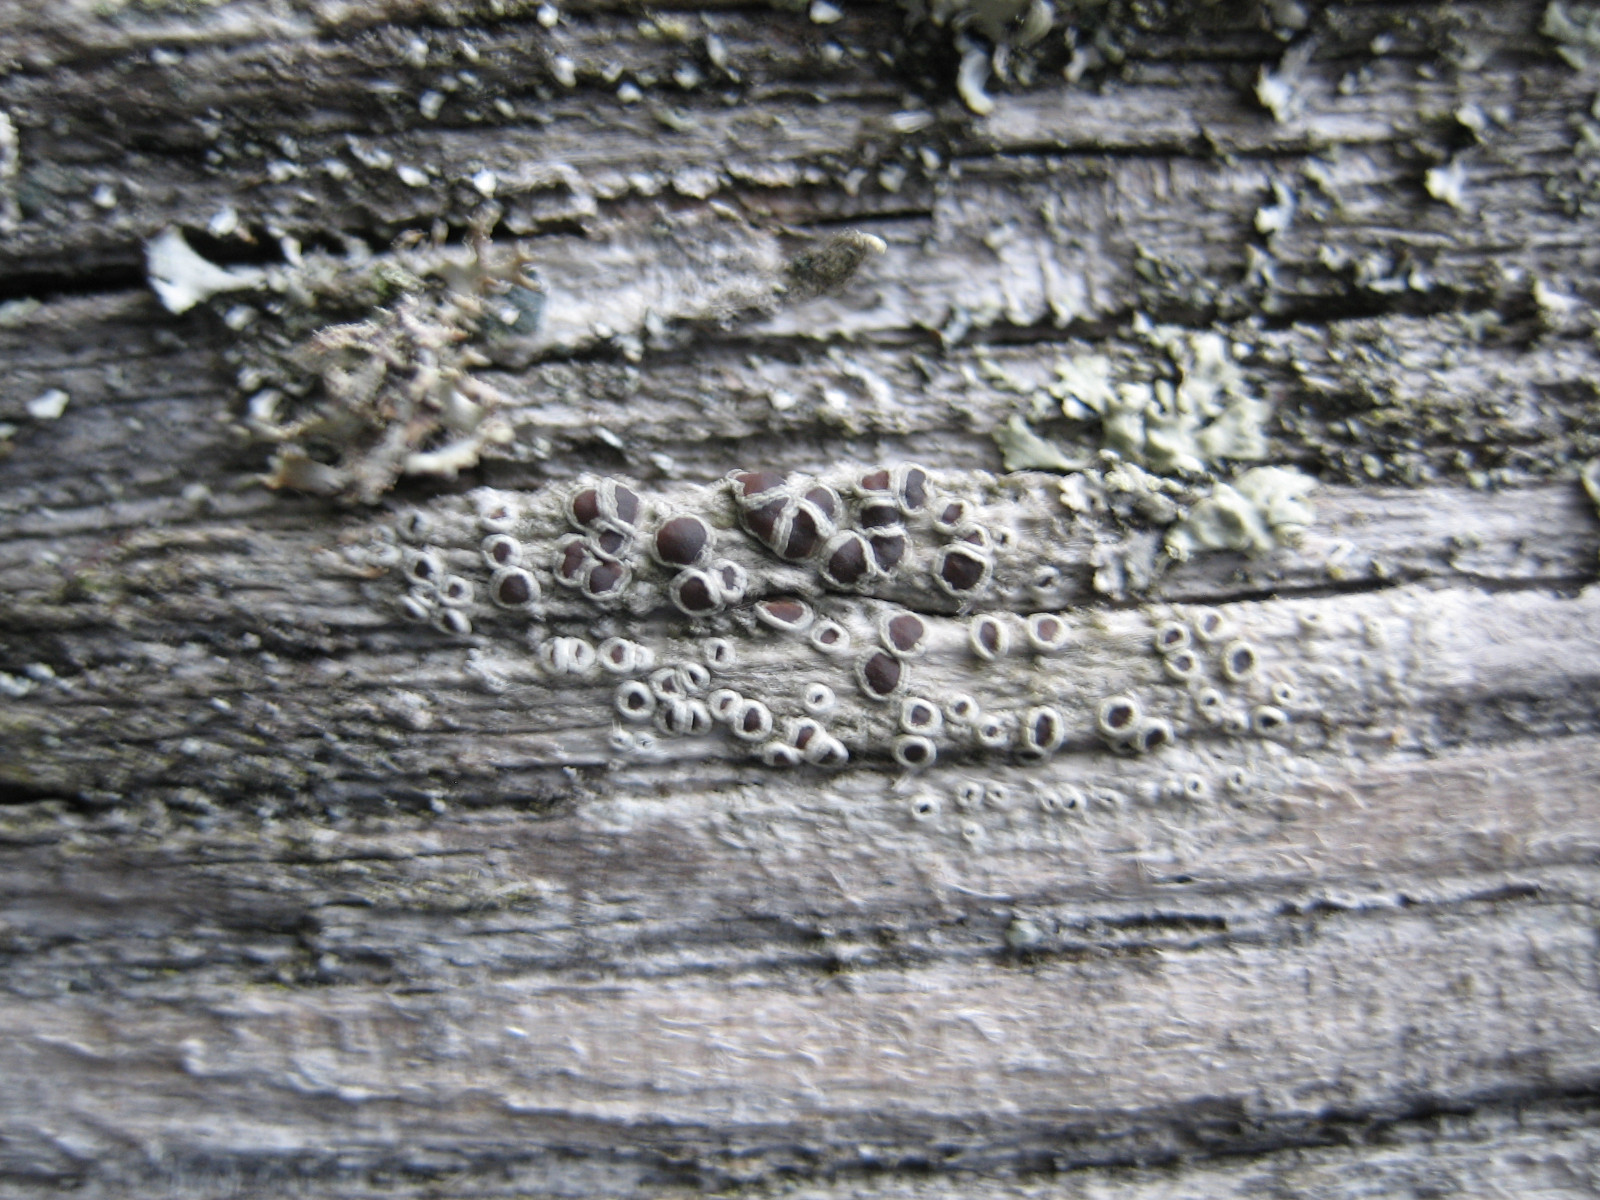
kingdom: Fungi
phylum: Ascomycota
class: Lecanoromycetes
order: Lecanorales
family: Lecanoraceae
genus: Lecanora
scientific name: Lecanora pulicaris
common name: almindelig kantskivelav
